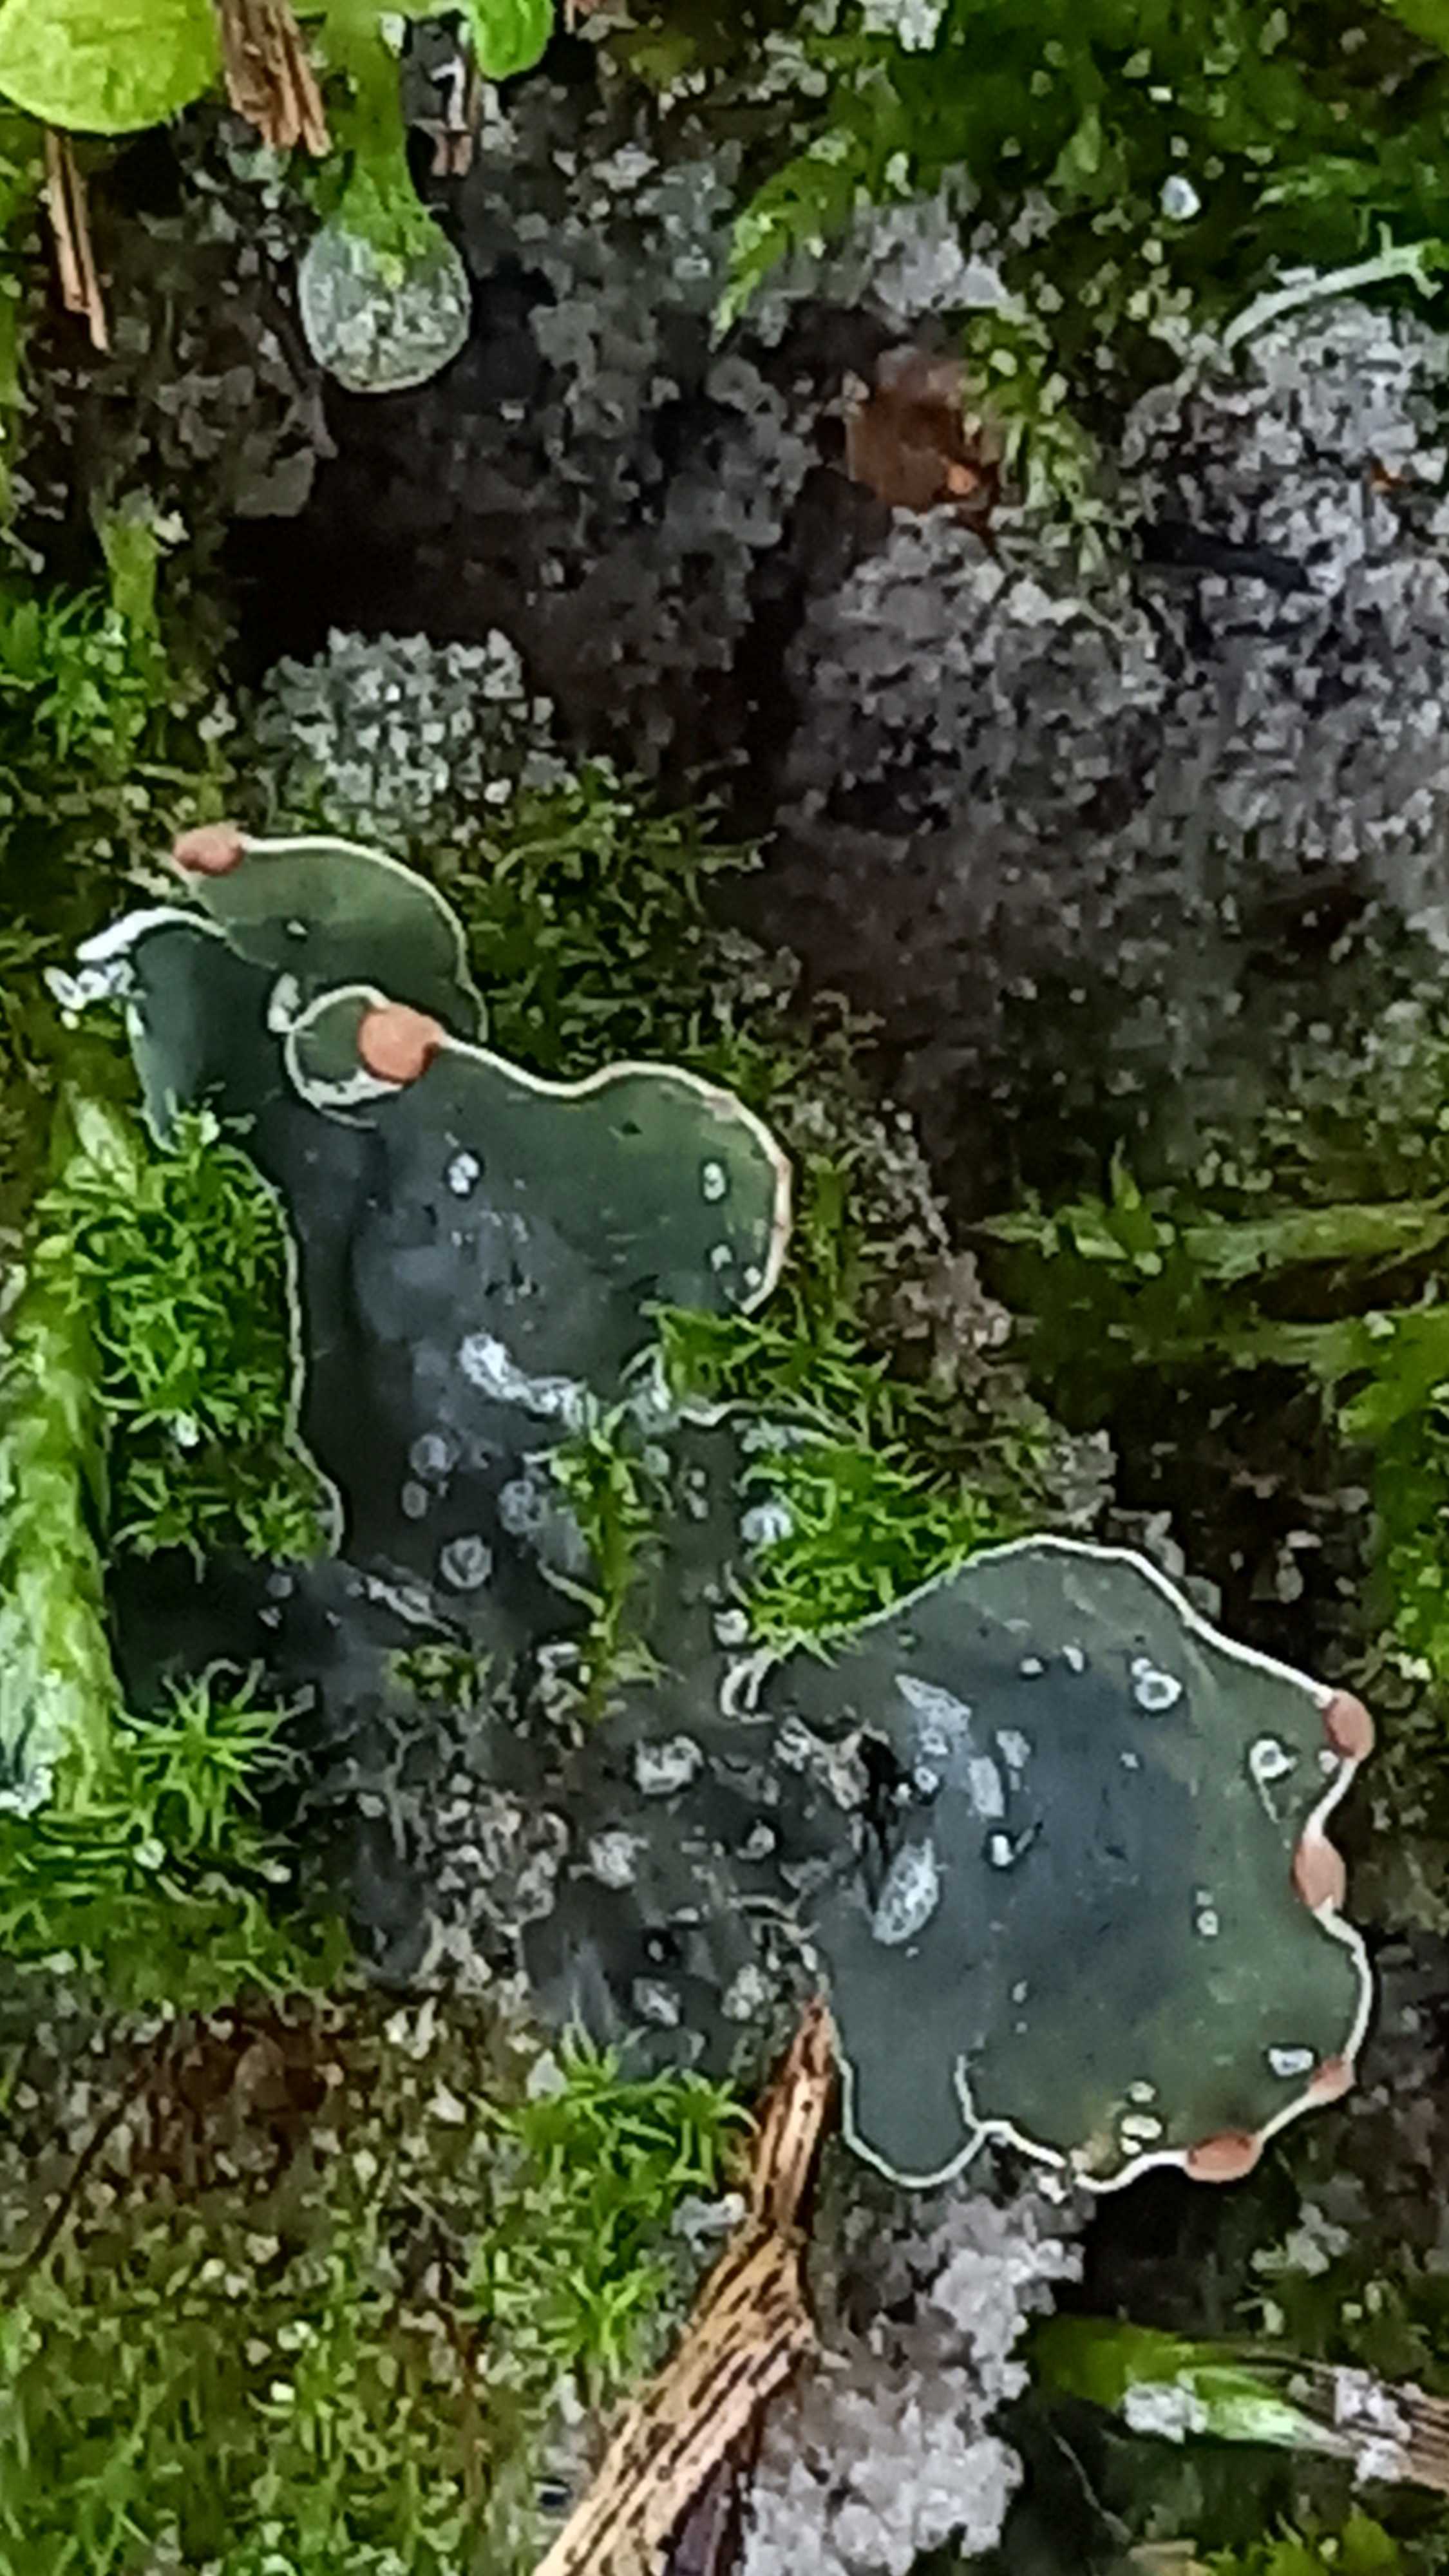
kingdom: Fungi
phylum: Ascomycota
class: Lecanoromycetes
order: Peltigerales
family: Peltigeraceae
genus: Peltigera
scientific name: Peltigera didactyla
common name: liden skjoldlav
